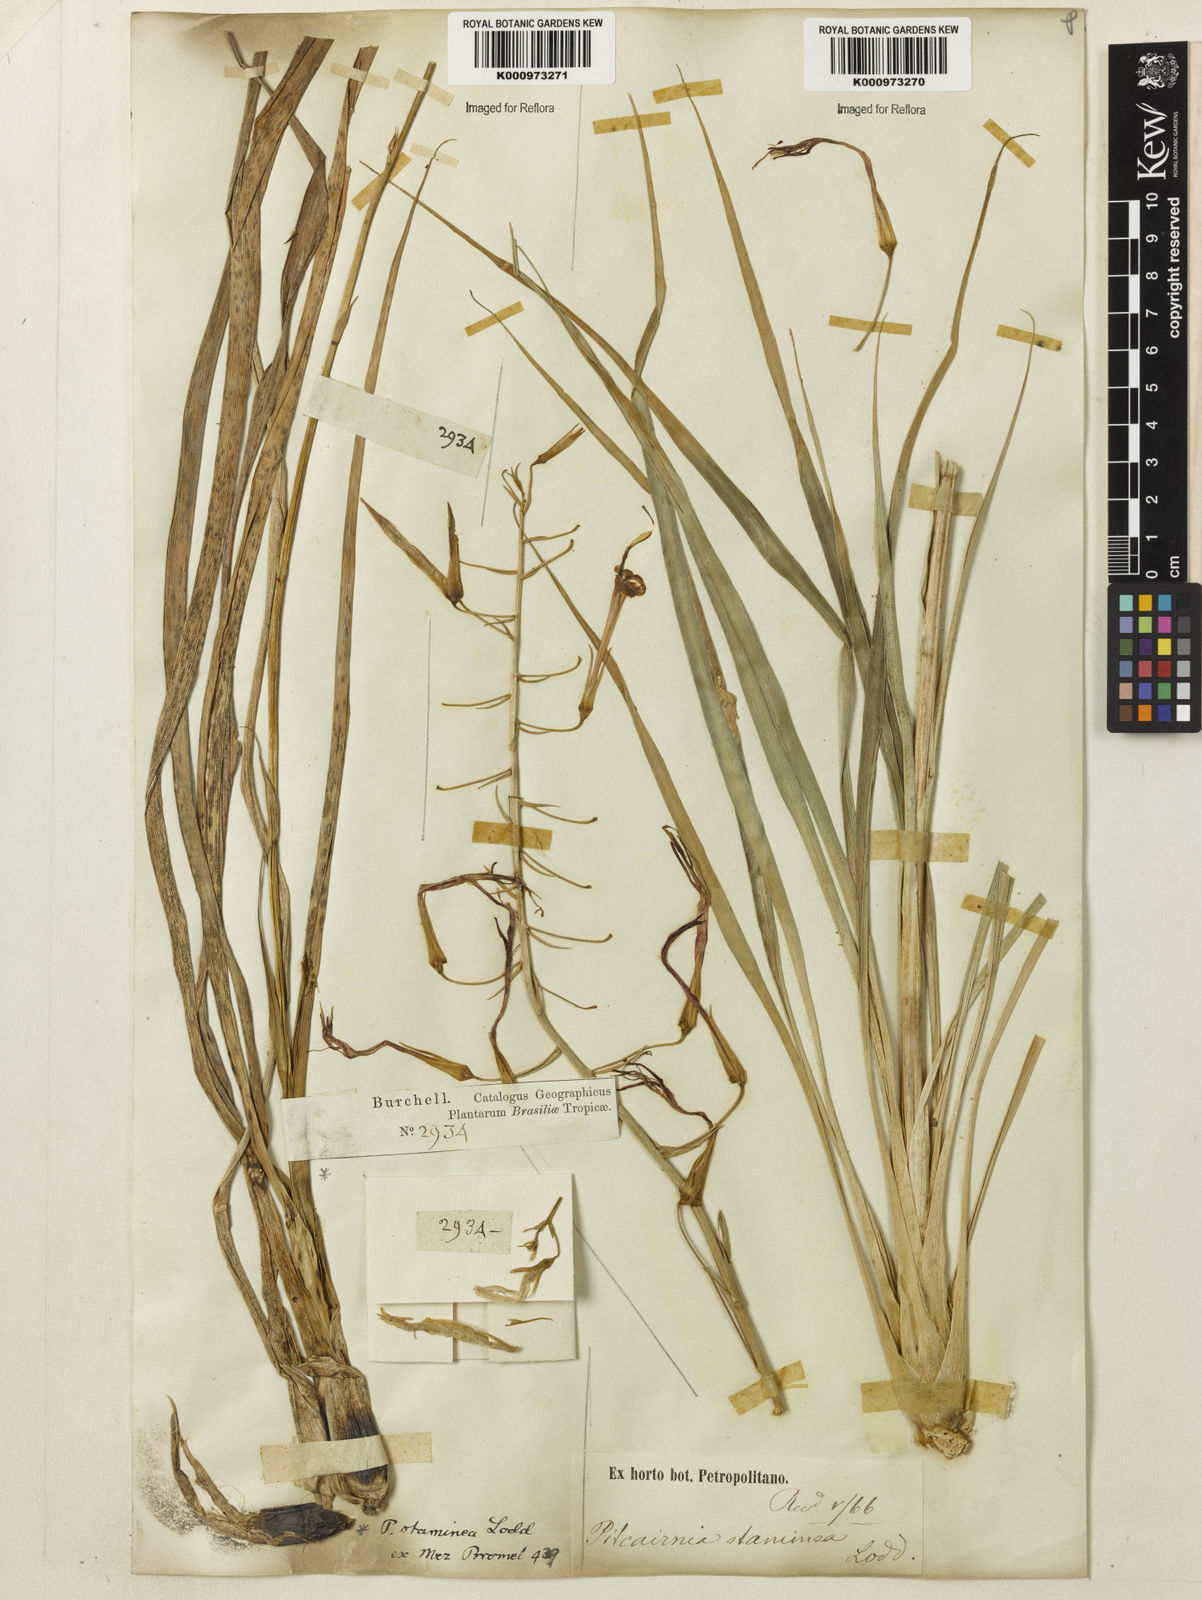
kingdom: Plantae
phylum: Tracheophyta
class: Liliopsida
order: Poales
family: Bromeliaceae
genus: Pitcairnia
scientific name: Pitcairnia staminea
